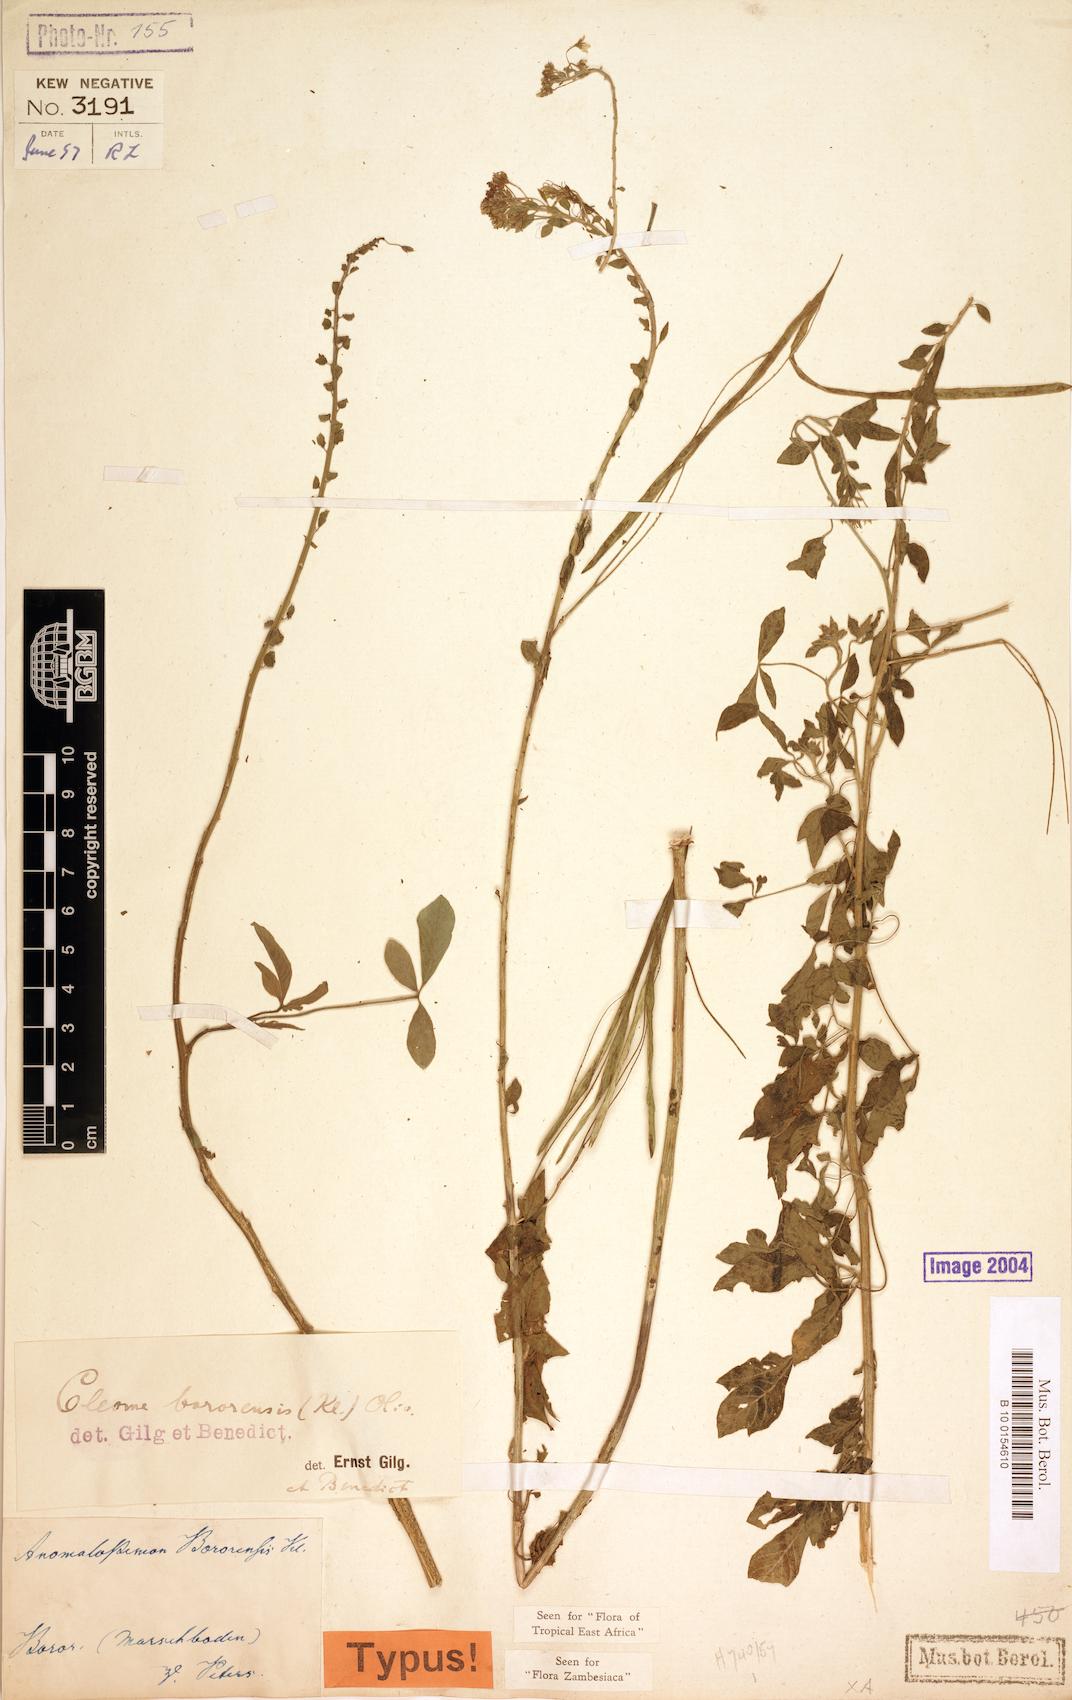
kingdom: Plantae
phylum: Tracheophyta
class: Magnoliopsida
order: Brassicales
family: Cleomaceae
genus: Sieruela
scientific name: Sieruela bororensis
